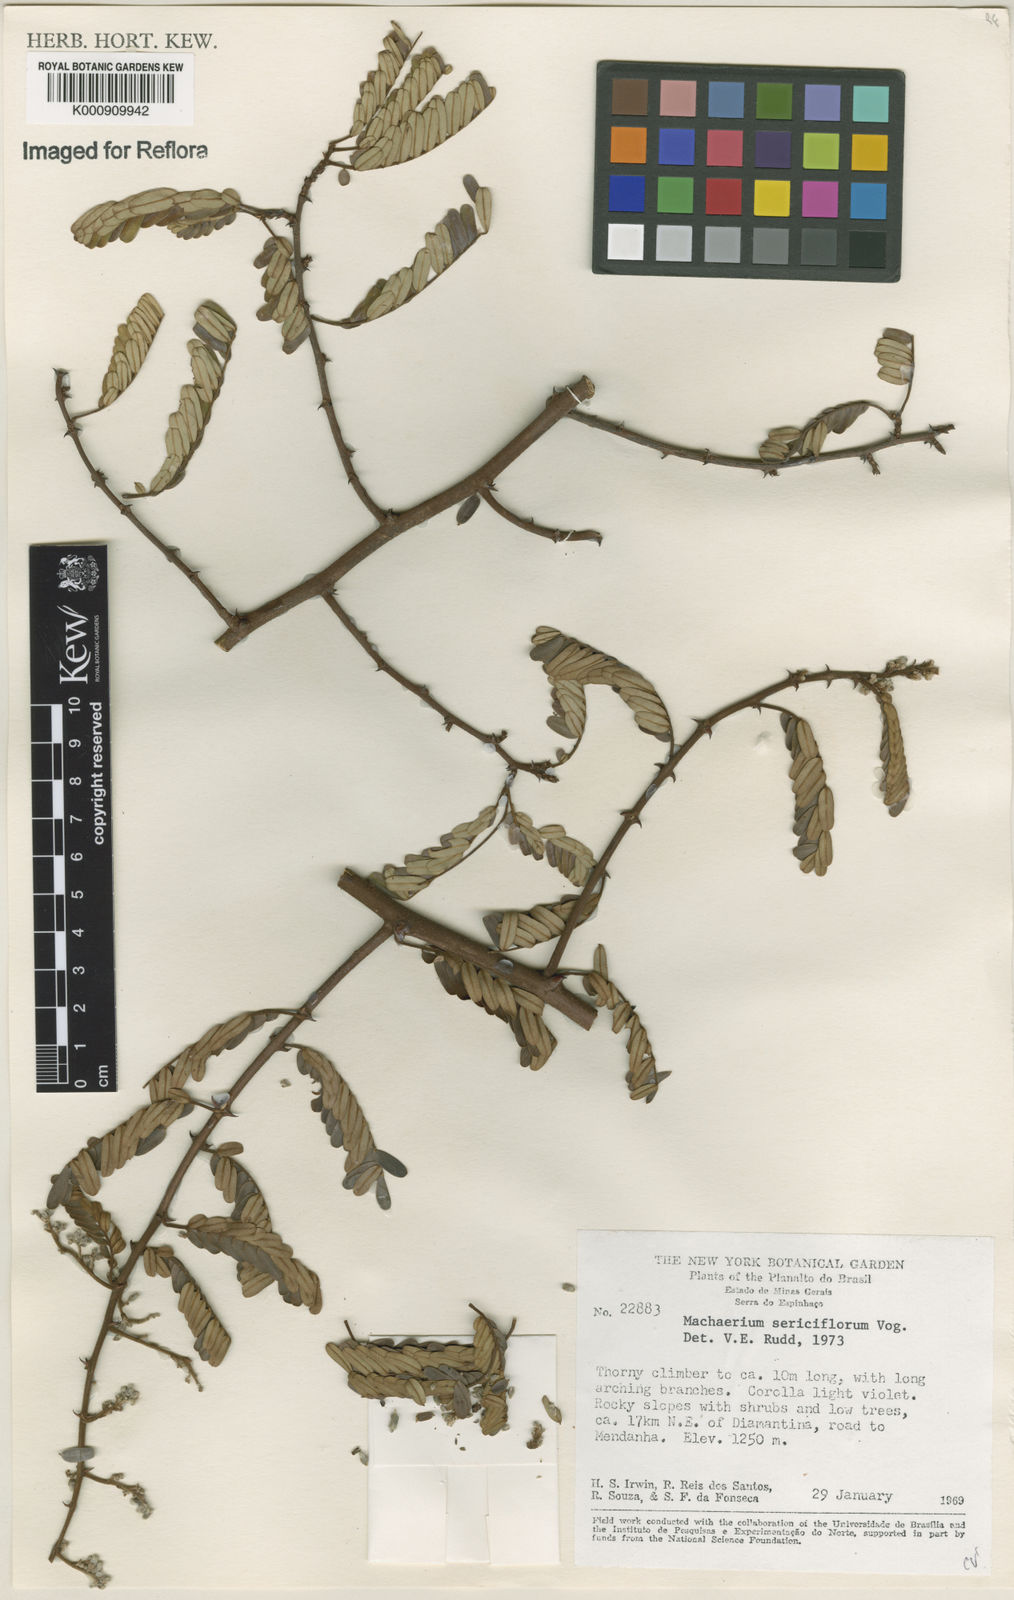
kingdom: Plantae
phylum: Tracheophyta
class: Magnoliopsida
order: Fabales
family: Fabaceae
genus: Machaerium
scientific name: Machaerium scleroxylon
